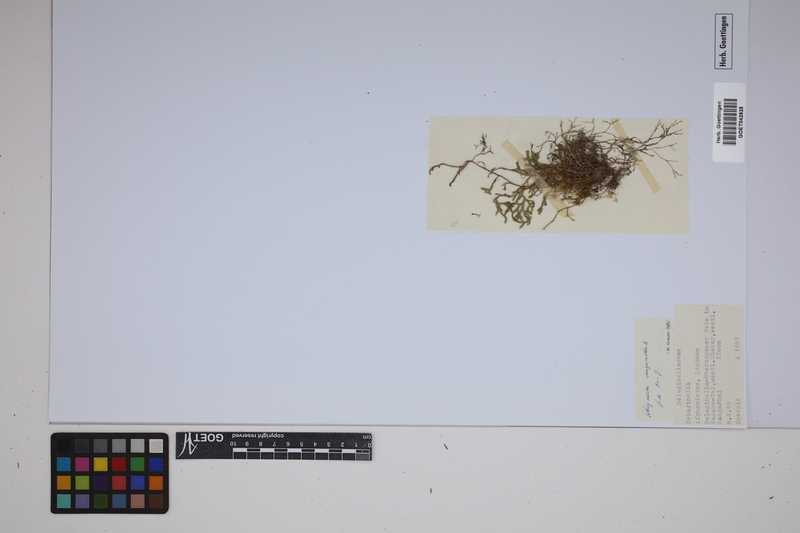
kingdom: Plantae
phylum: Tracheophyta
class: Lycopodiopsida
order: Selaginellales
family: Selaginellaceae
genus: Selaginella
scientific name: Selaginella sanguinolenta
